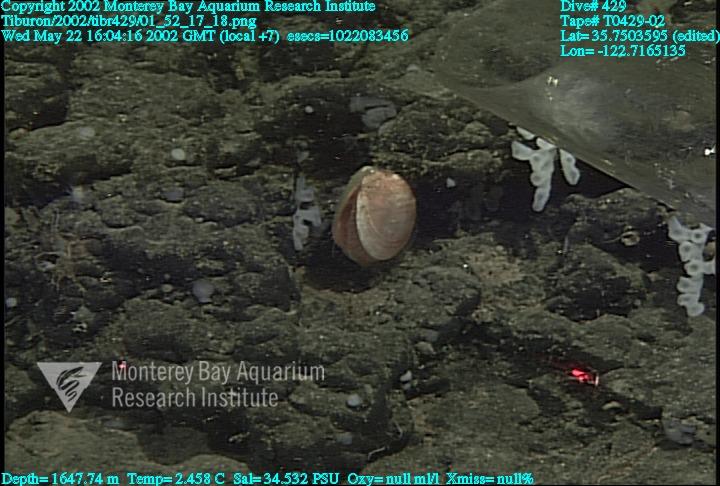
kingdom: Animalia
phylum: Porifera
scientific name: Porifera
